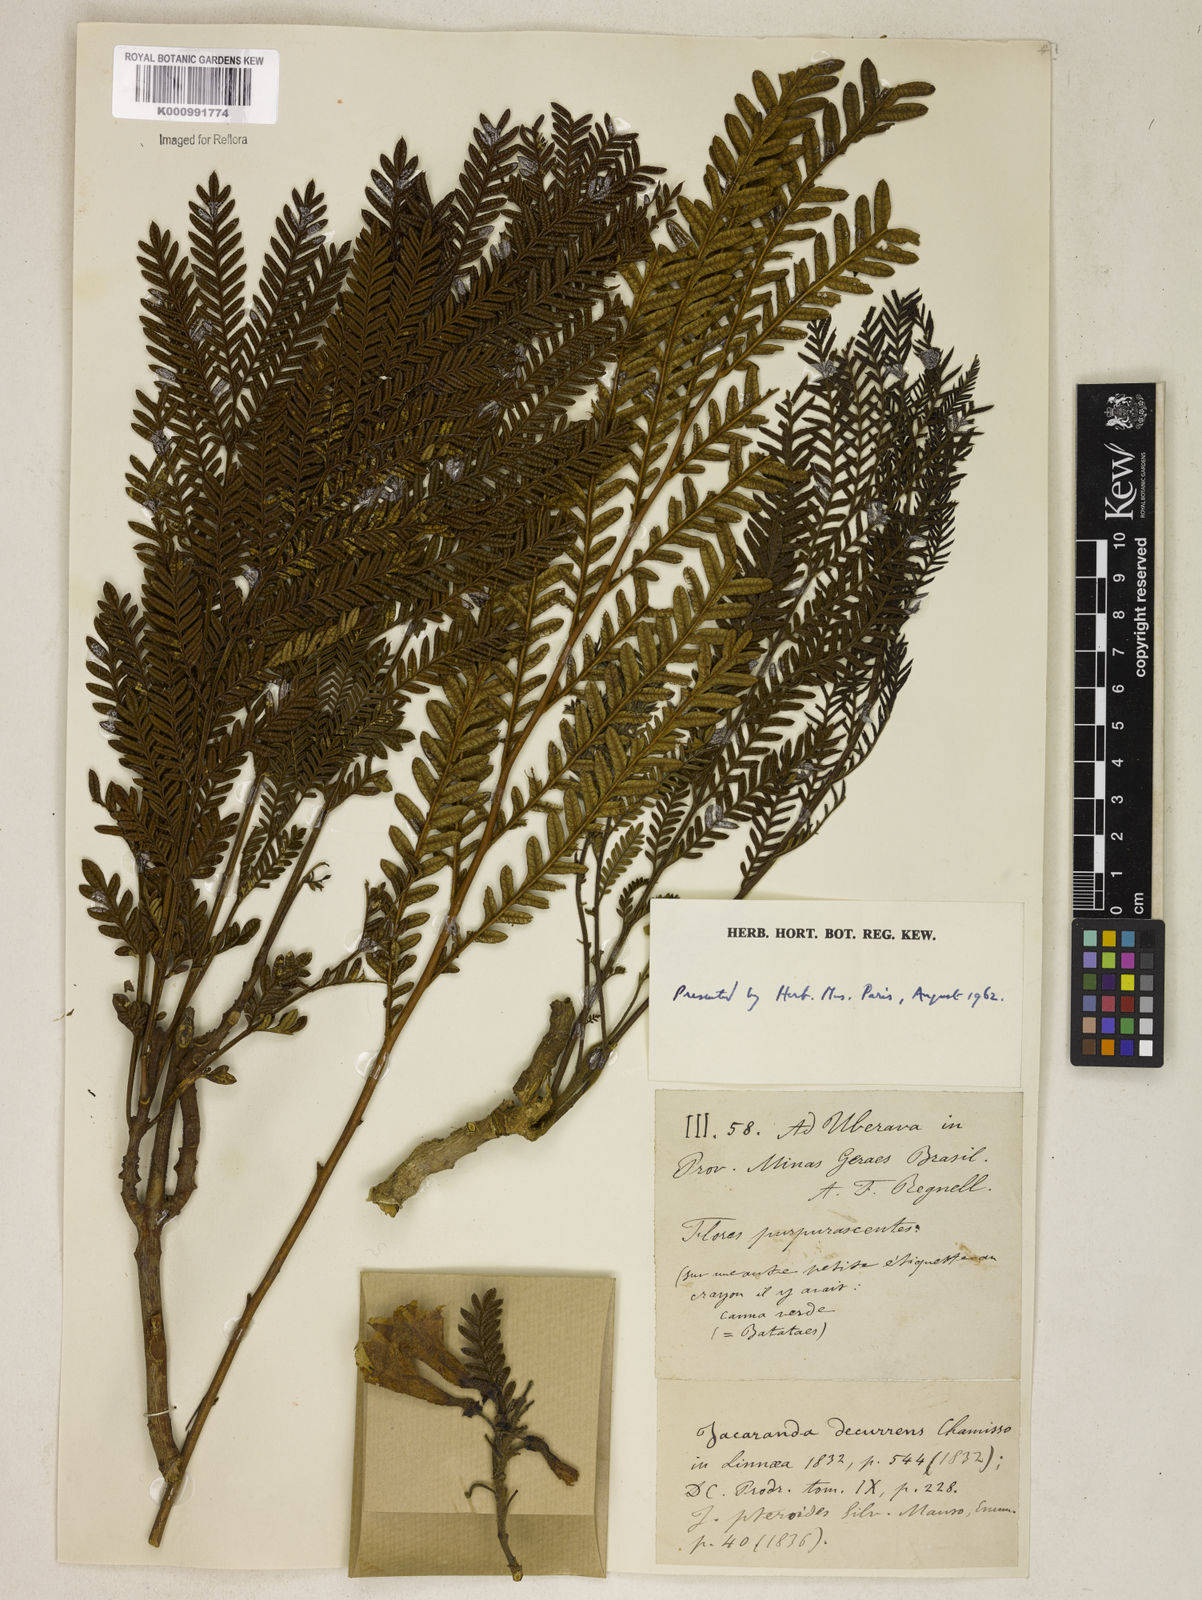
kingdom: Plantae
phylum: Tracheophyta
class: Magnoliopsida
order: Lamiales
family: Bignoniaceae
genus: Jacaranda
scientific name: Jacaranda decurrens
